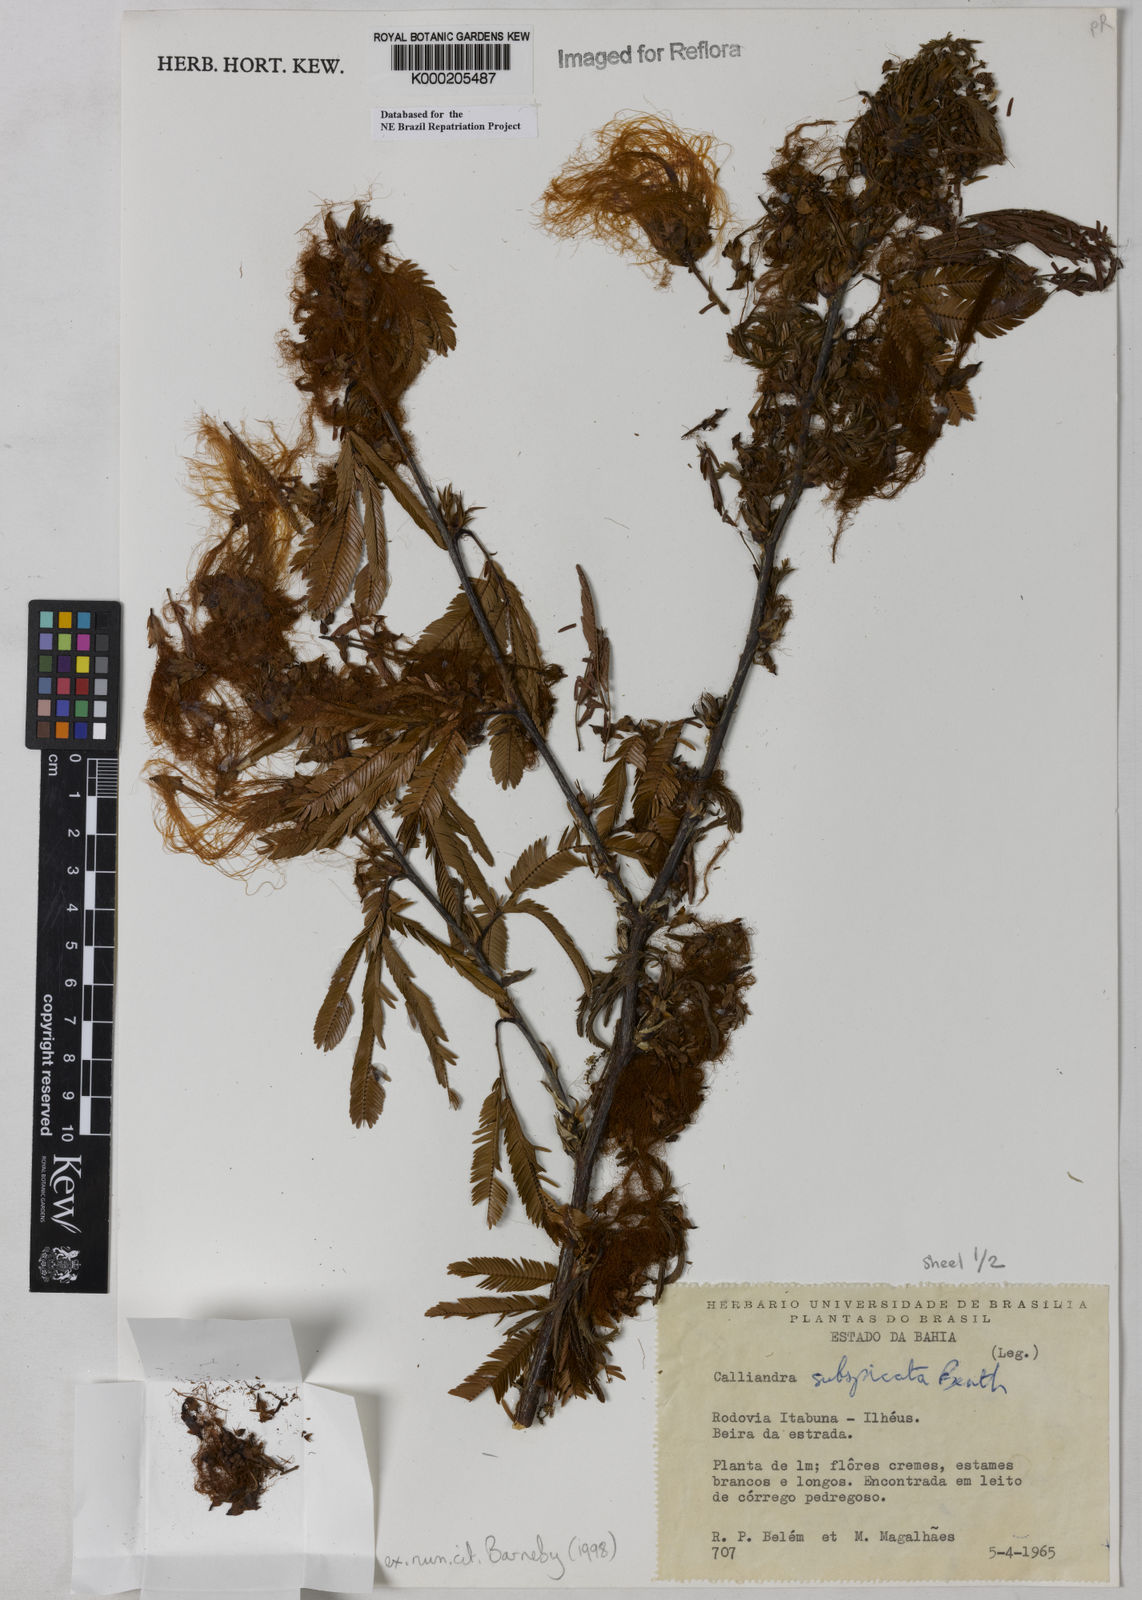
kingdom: Plantae
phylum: Tracheophyta
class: Magnoliopsida
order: Fabales
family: Fabaceae
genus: Calliandra
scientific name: Calliandra subspicata
